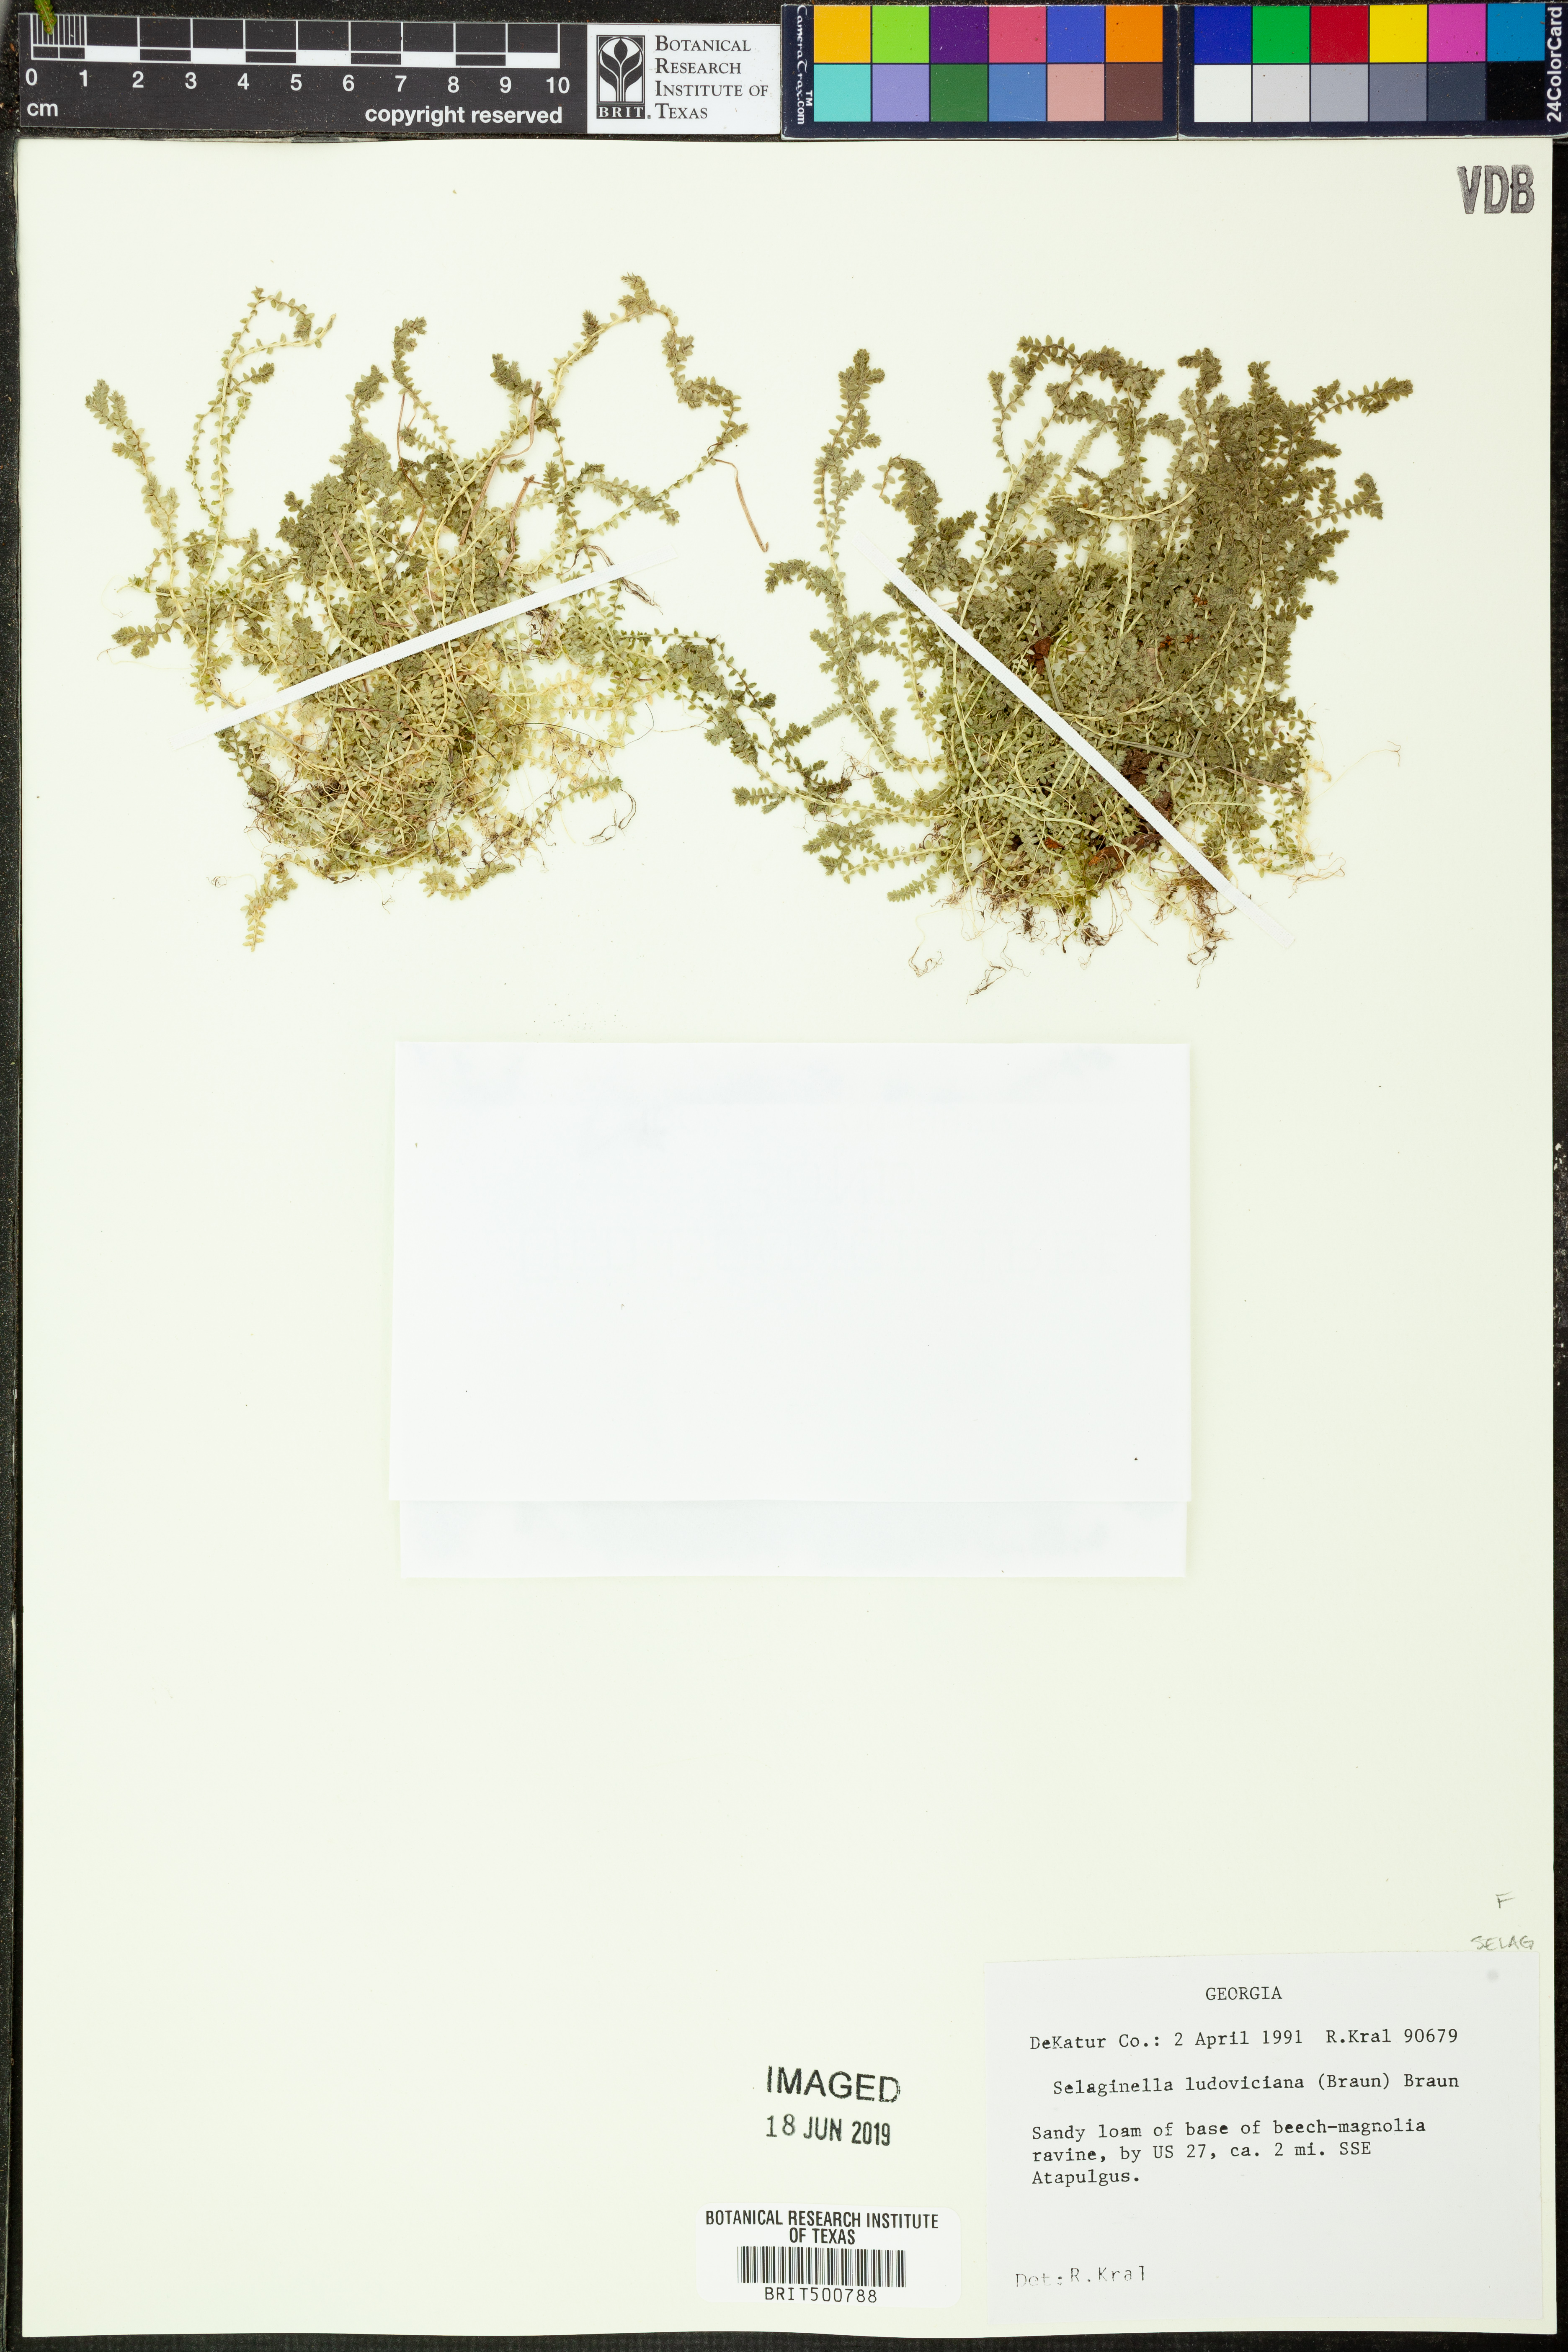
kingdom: Plantae
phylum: Tracheophyta
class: Lycopodiopsida
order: Selaginellales
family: Selaginellaceae
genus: Selaginella
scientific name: Selaginella ludoviciana
